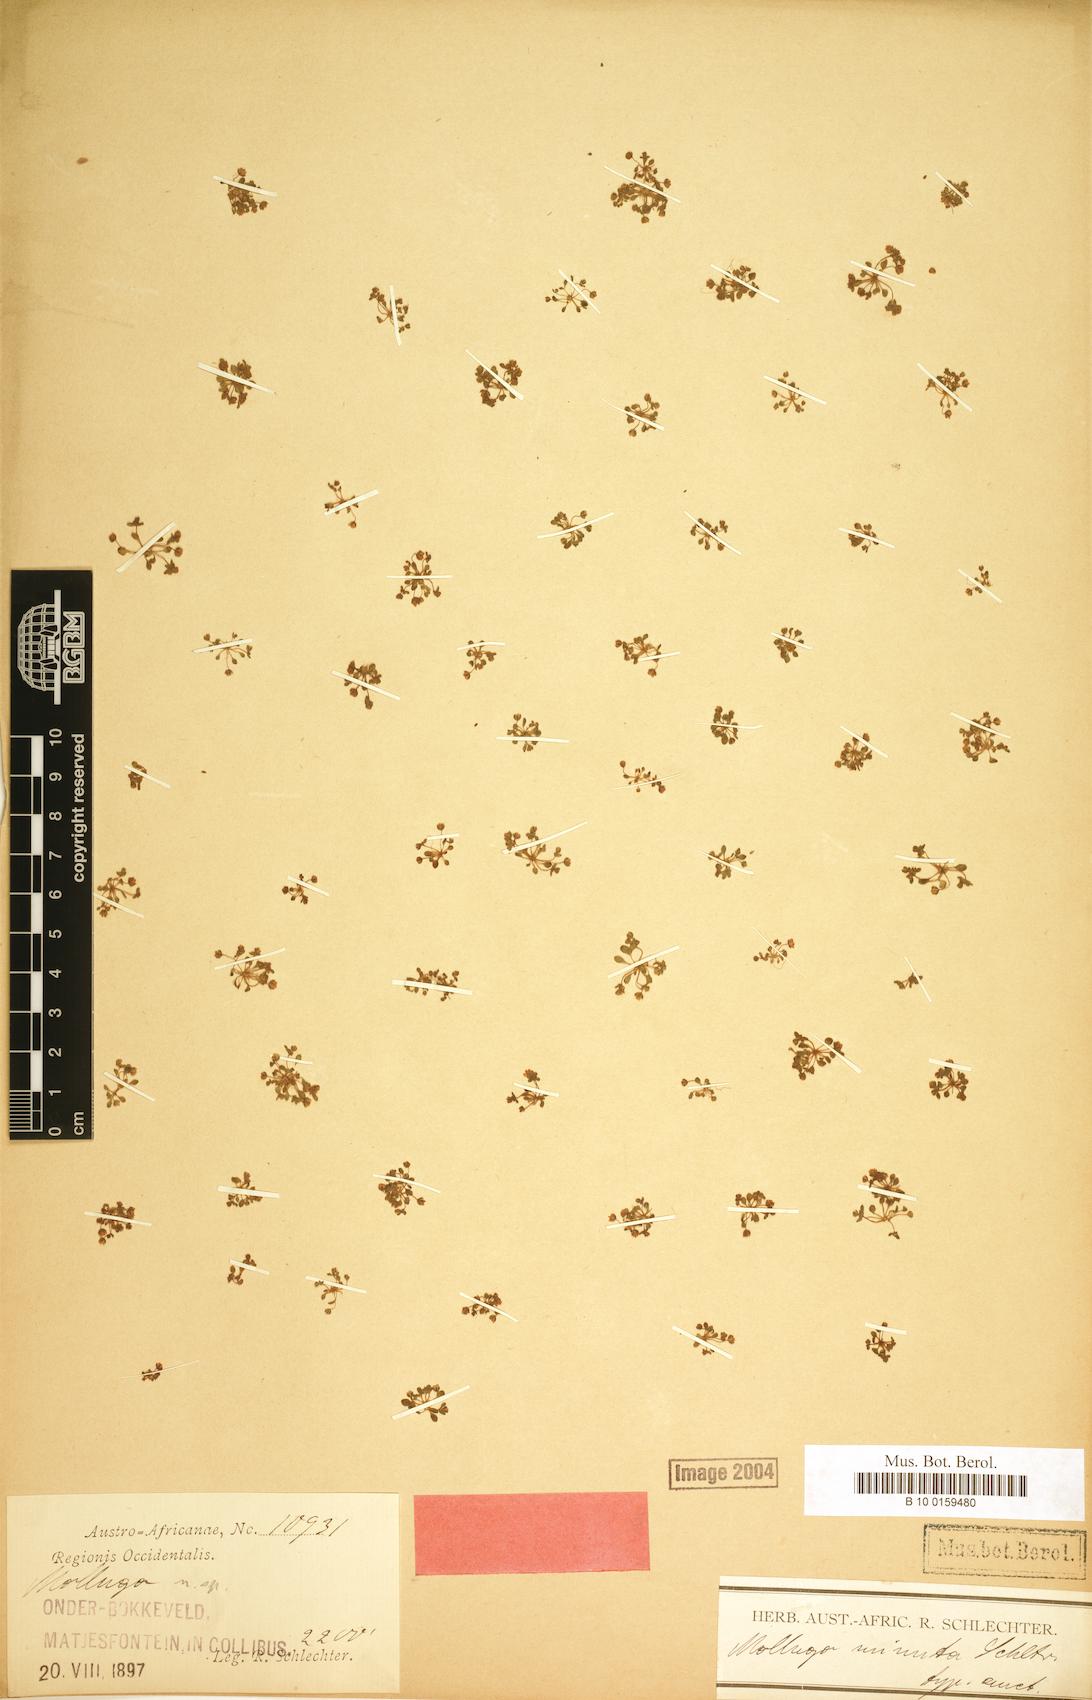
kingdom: Plantae
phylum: Tracheophyta
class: Magnoliopsida
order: Caryophyllales
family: Molluginaceae
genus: Mollugo
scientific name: Mollugo
